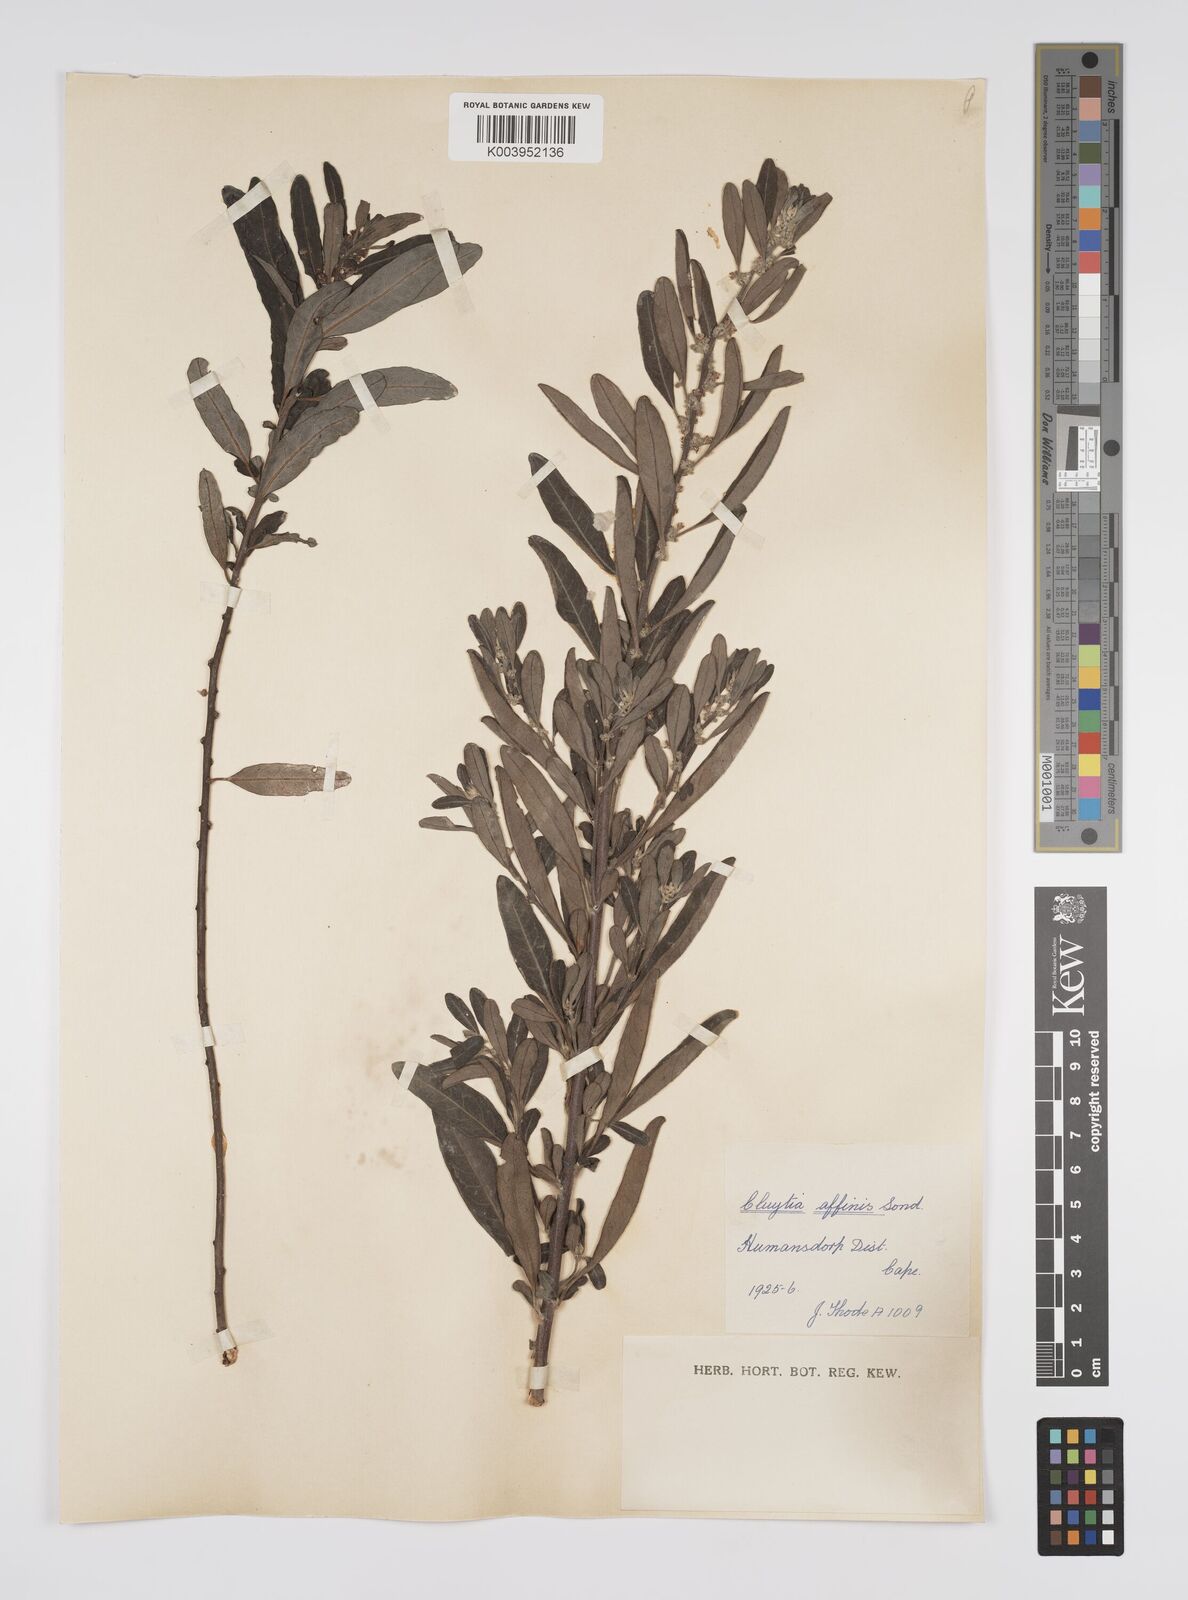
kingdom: Plantae
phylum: Tracheophyta
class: Magnoliopsida
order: Malpighiales
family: Peraceae
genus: Clutia
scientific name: Clutia affinis
